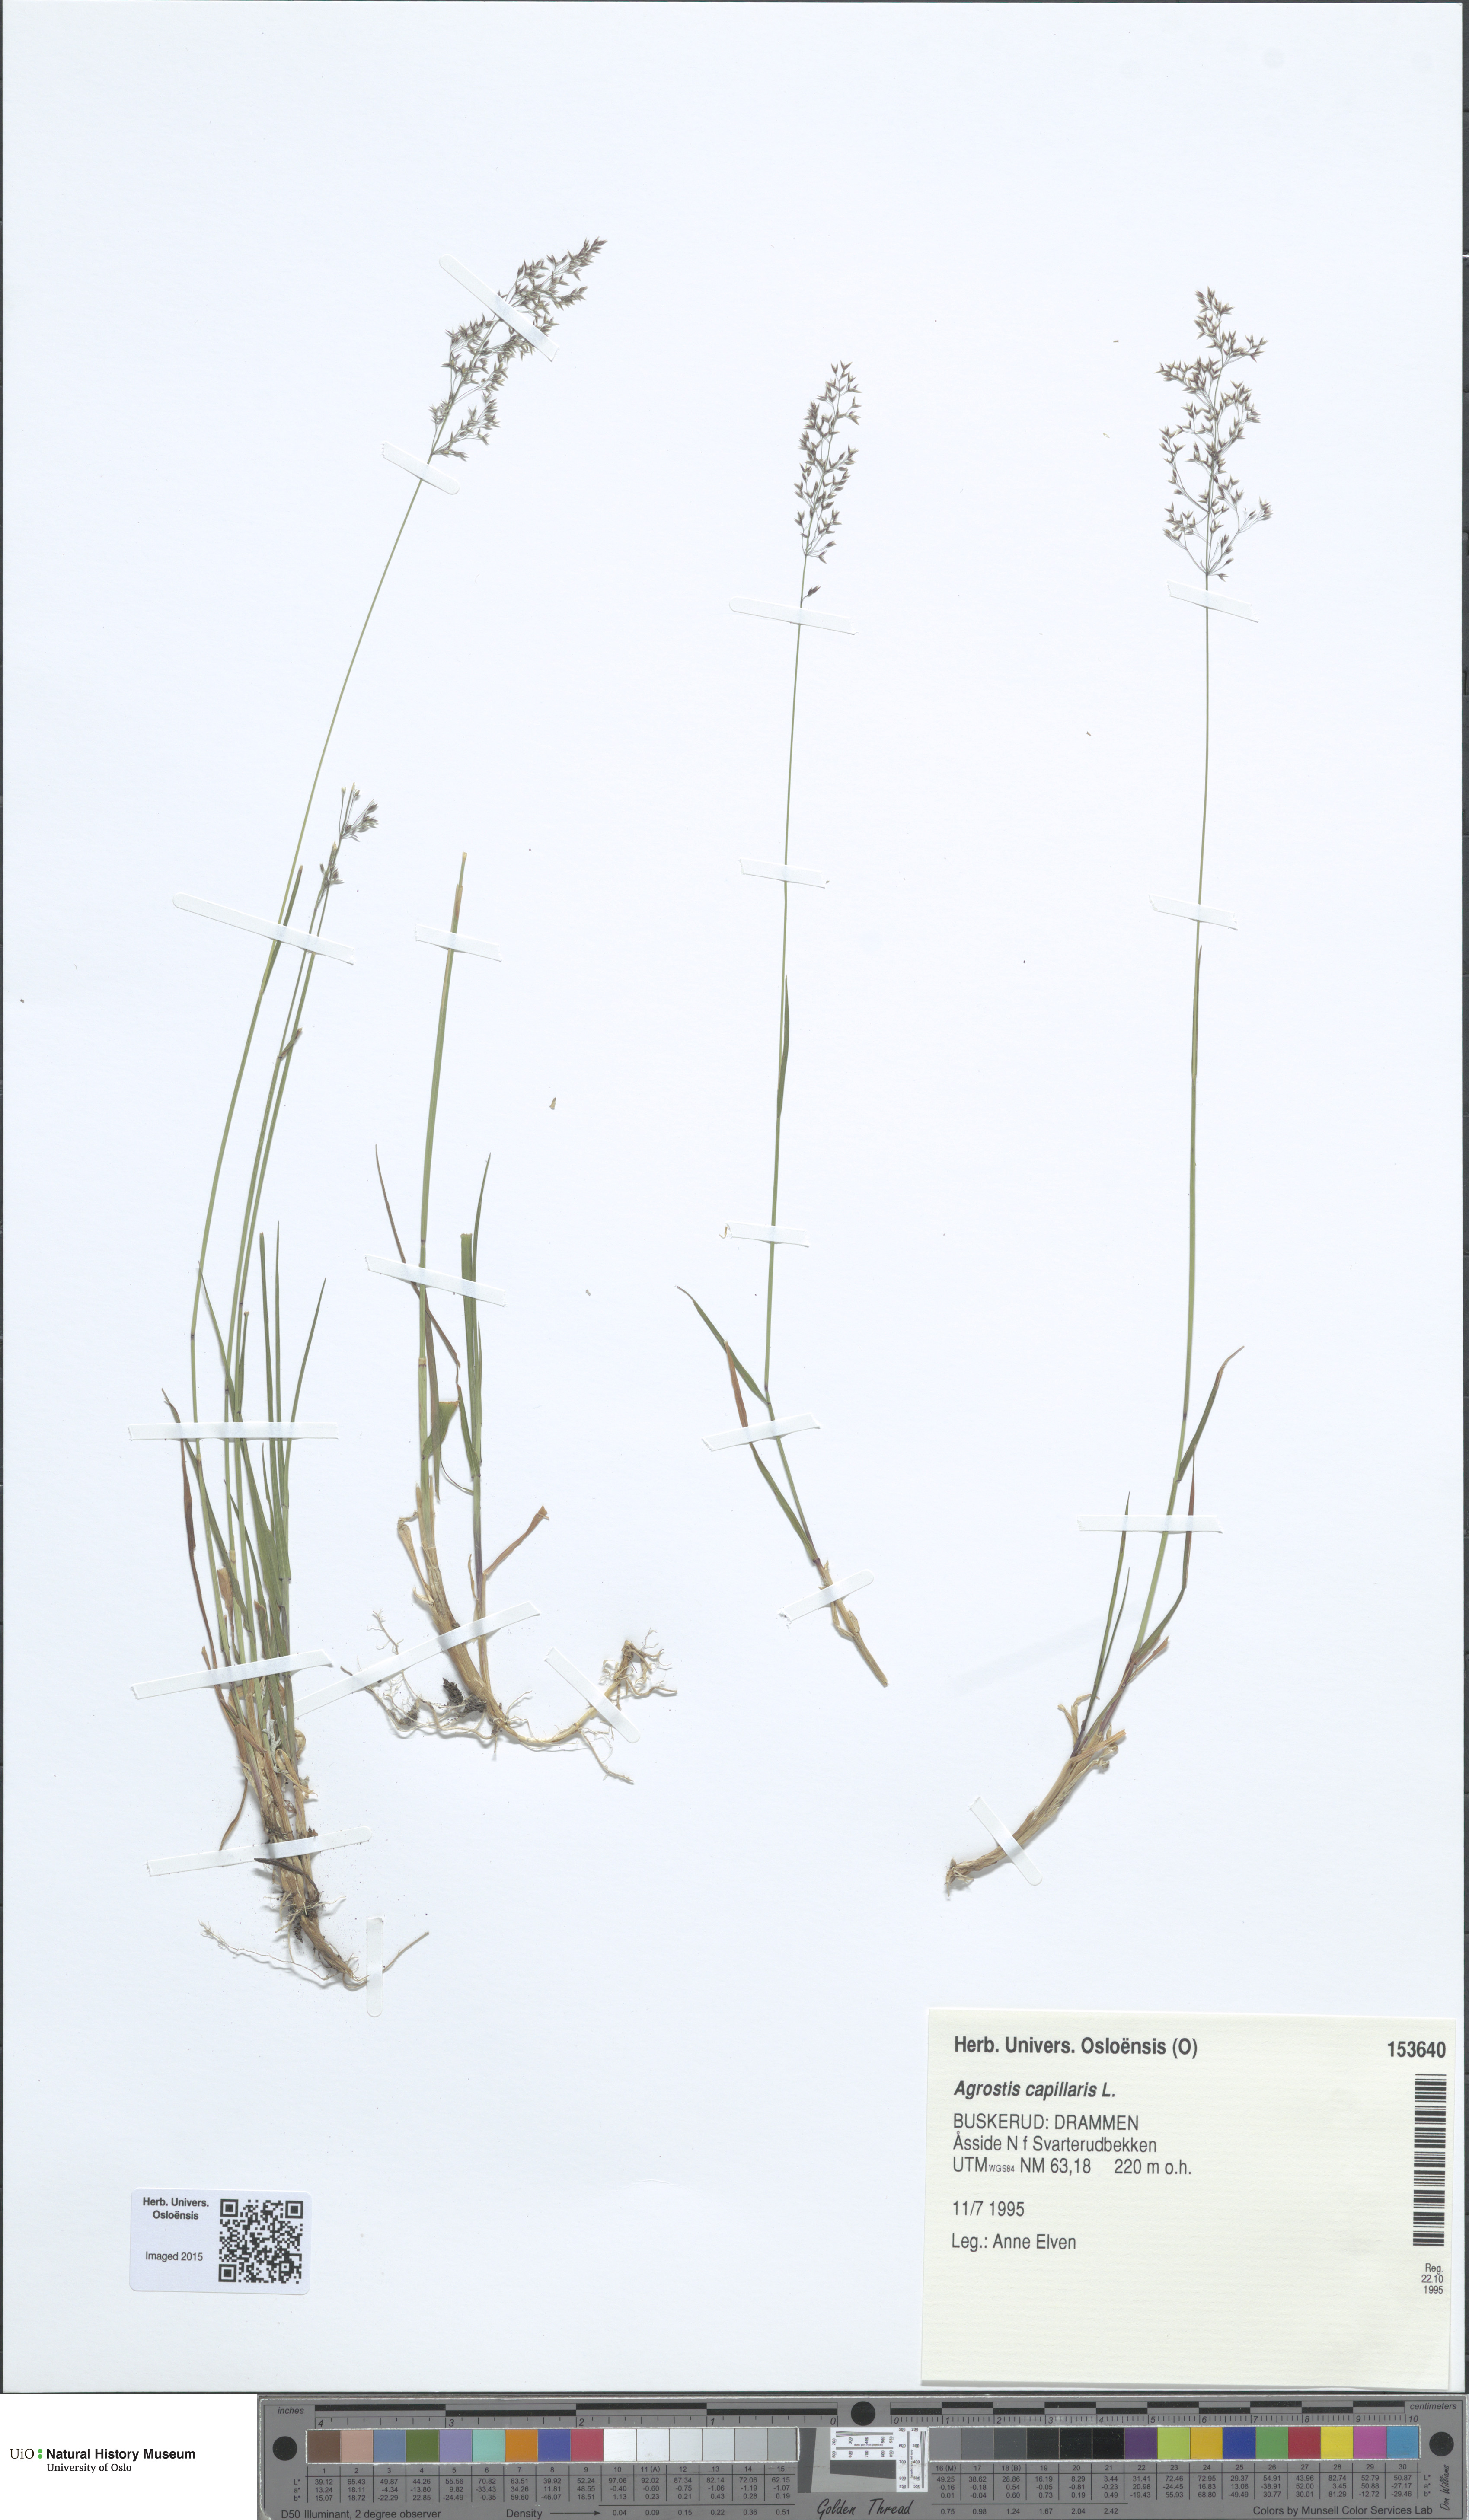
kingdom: Plantae
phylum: Tracheophyta
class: Liliopsida
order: Poales
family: Poaceae
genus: Agrostis
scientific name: Agrostis capillaris
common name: Colonial bentgrass
